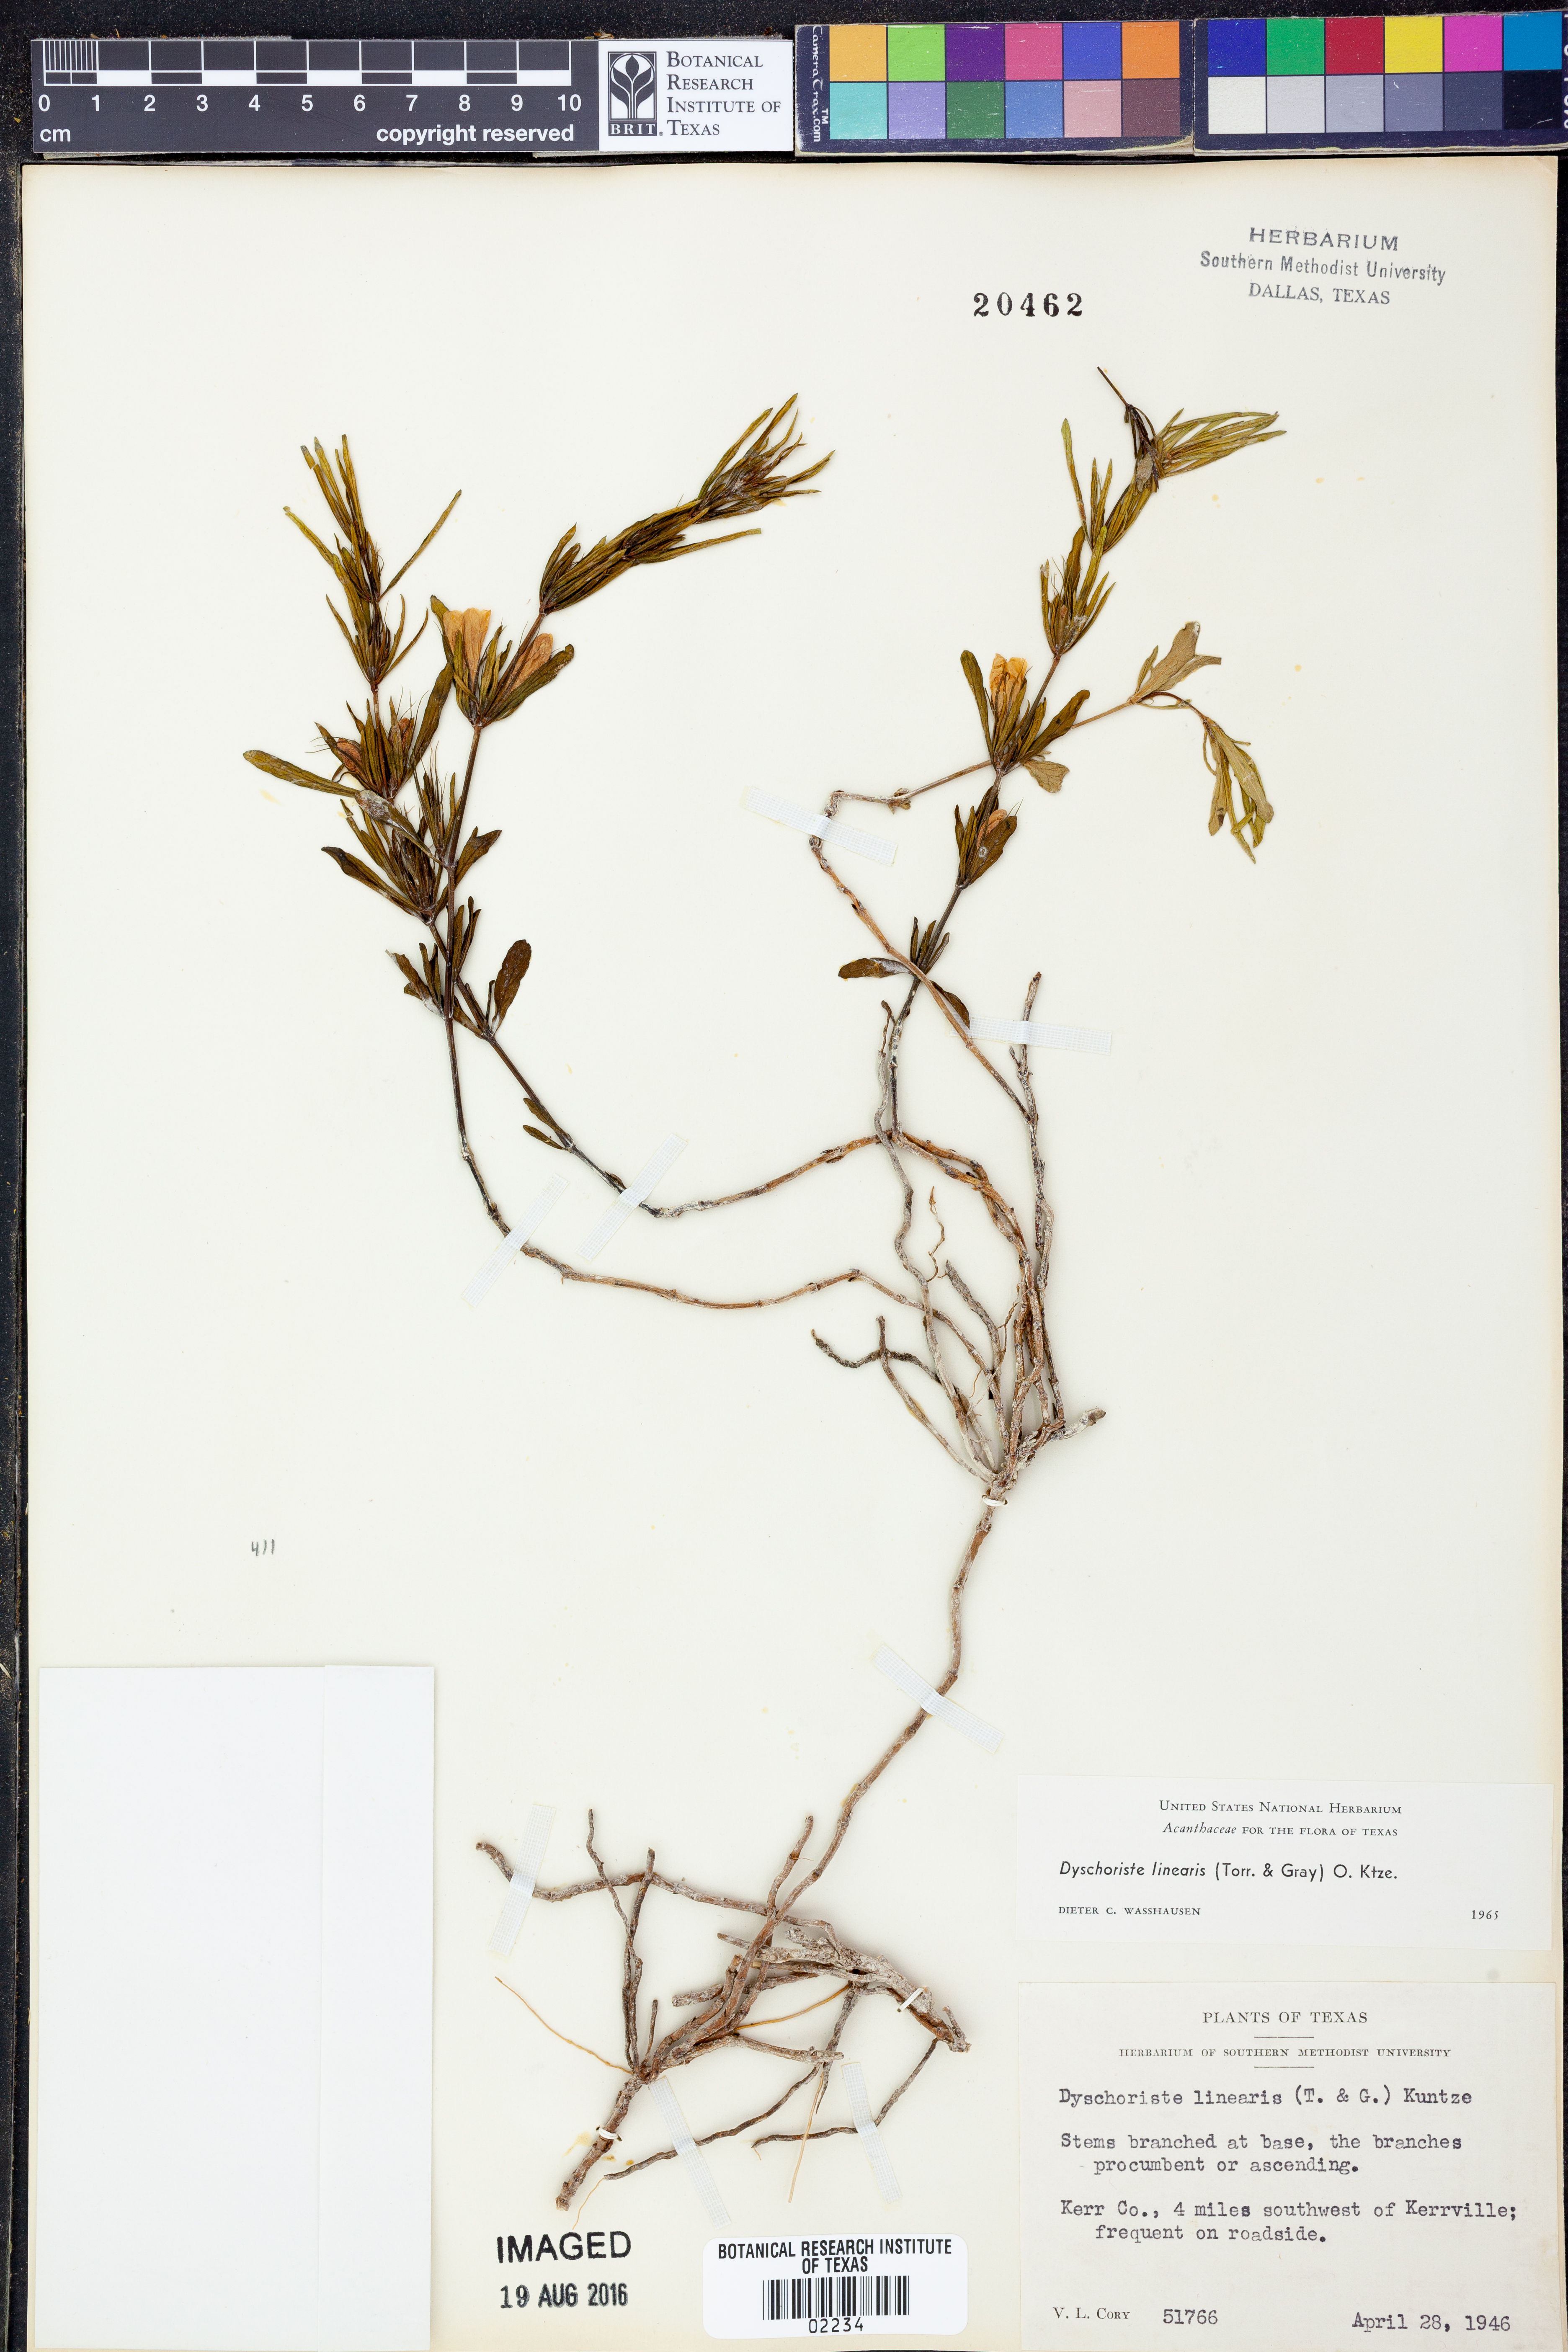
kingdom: Plantae
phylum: Tracheophyta
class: Magnoliopsida
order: Lamiales
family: Acanthaceae
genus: Dyschoriste
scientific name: Dyschoriste linearis
